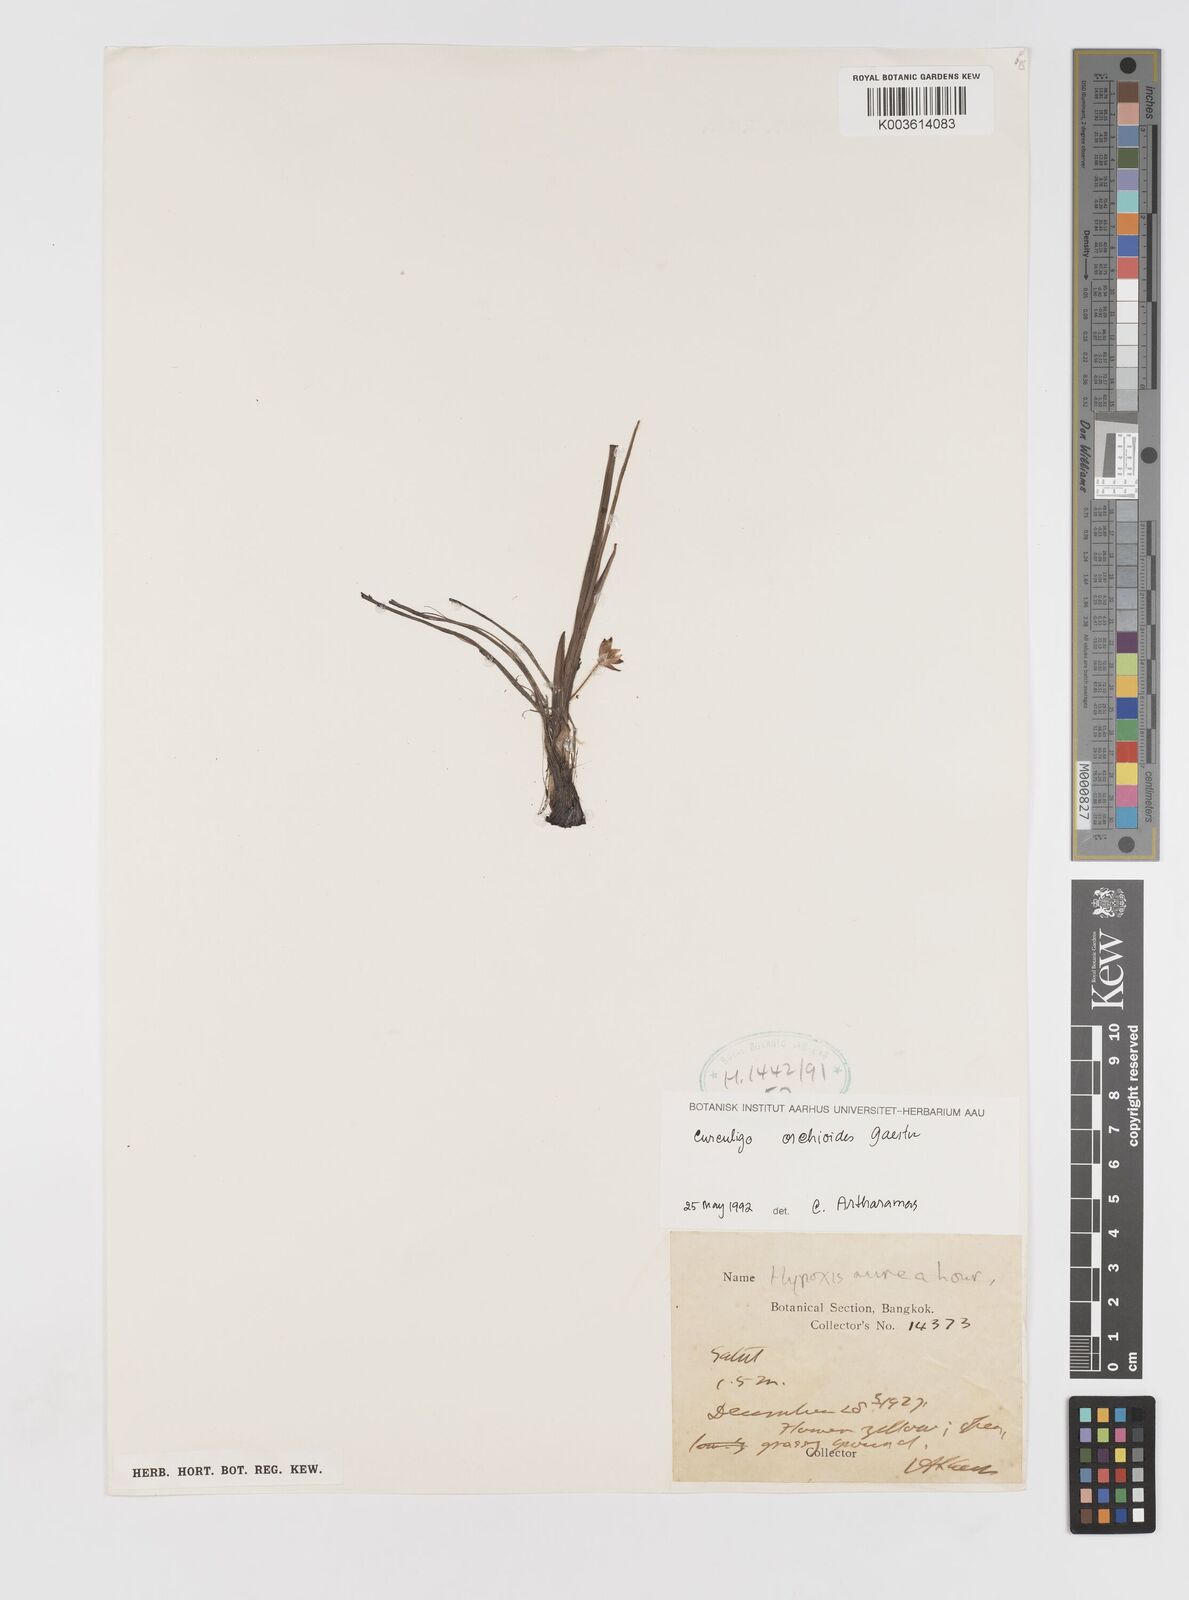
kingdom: Plantae
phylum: Tracheophyta
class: Liliopsida
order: Asparagales
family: Hypoxidaceae
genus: Curculigo
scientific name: Curculigo orchioides
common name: Golden eye-grass
